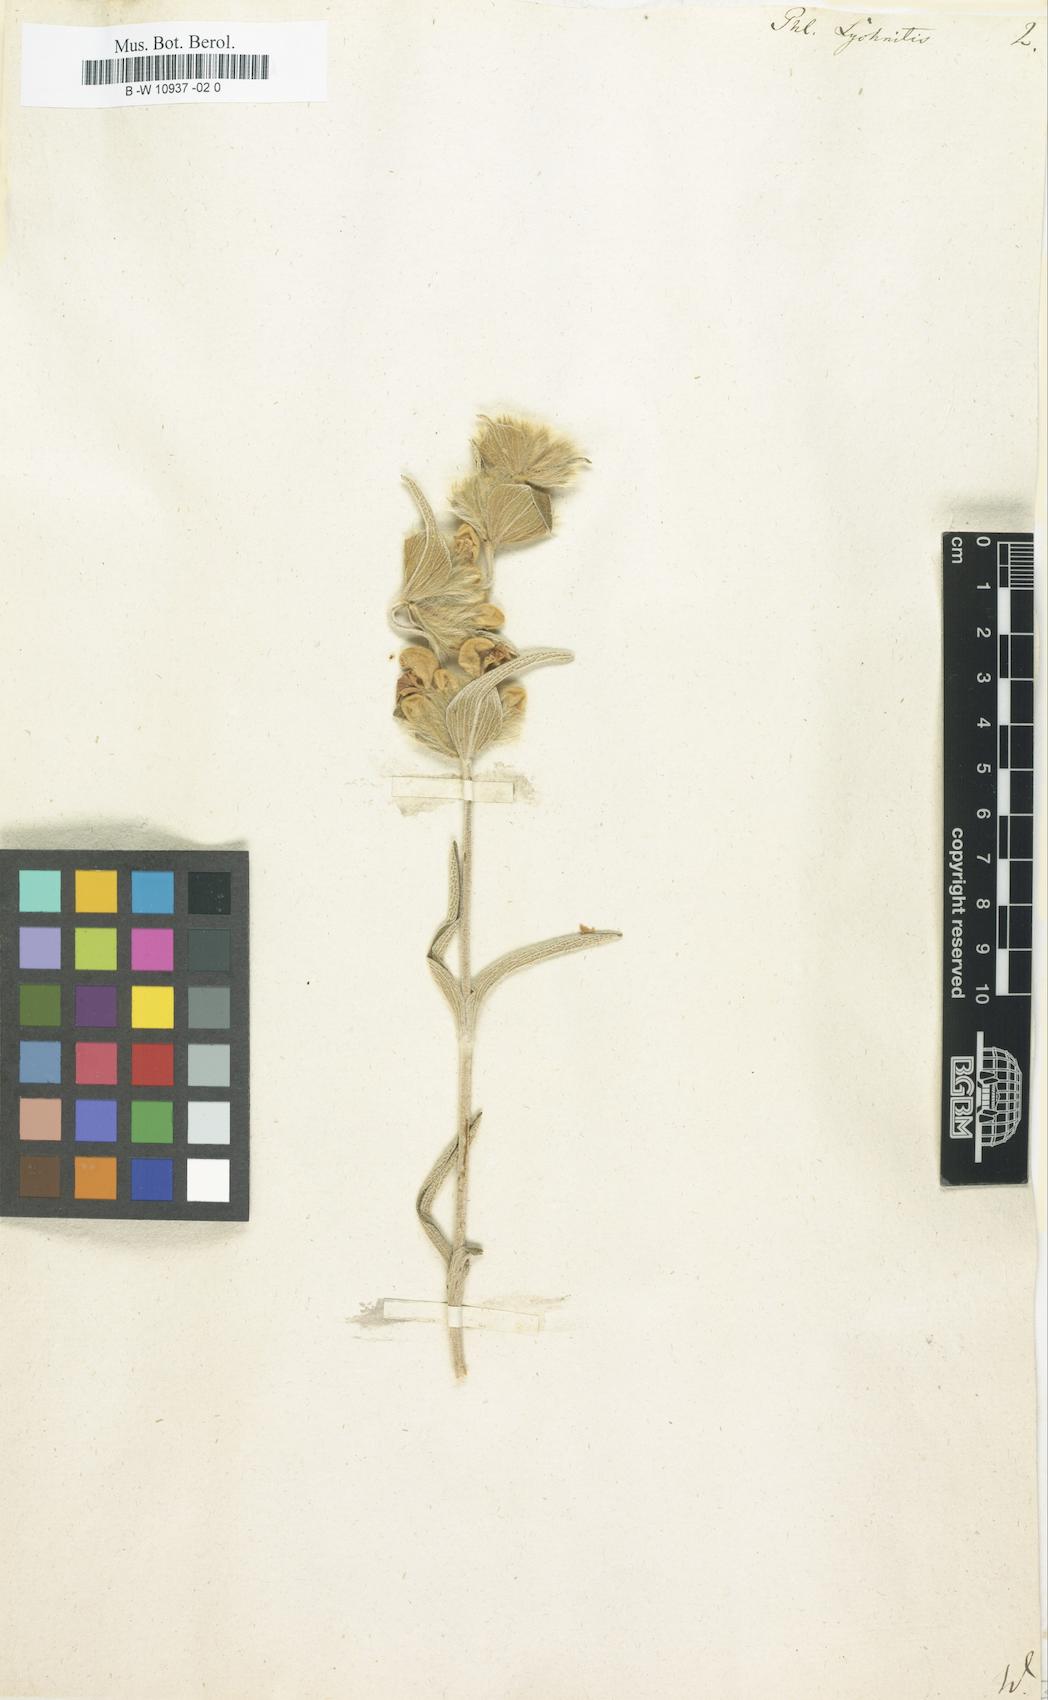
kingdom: Plantae
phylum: Tracheophyta
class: Magnoliopsida
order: Lamiales
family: Lamiaceae
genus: Phlomis
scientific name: Phlomis lychnitis
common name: Lampwickplant
